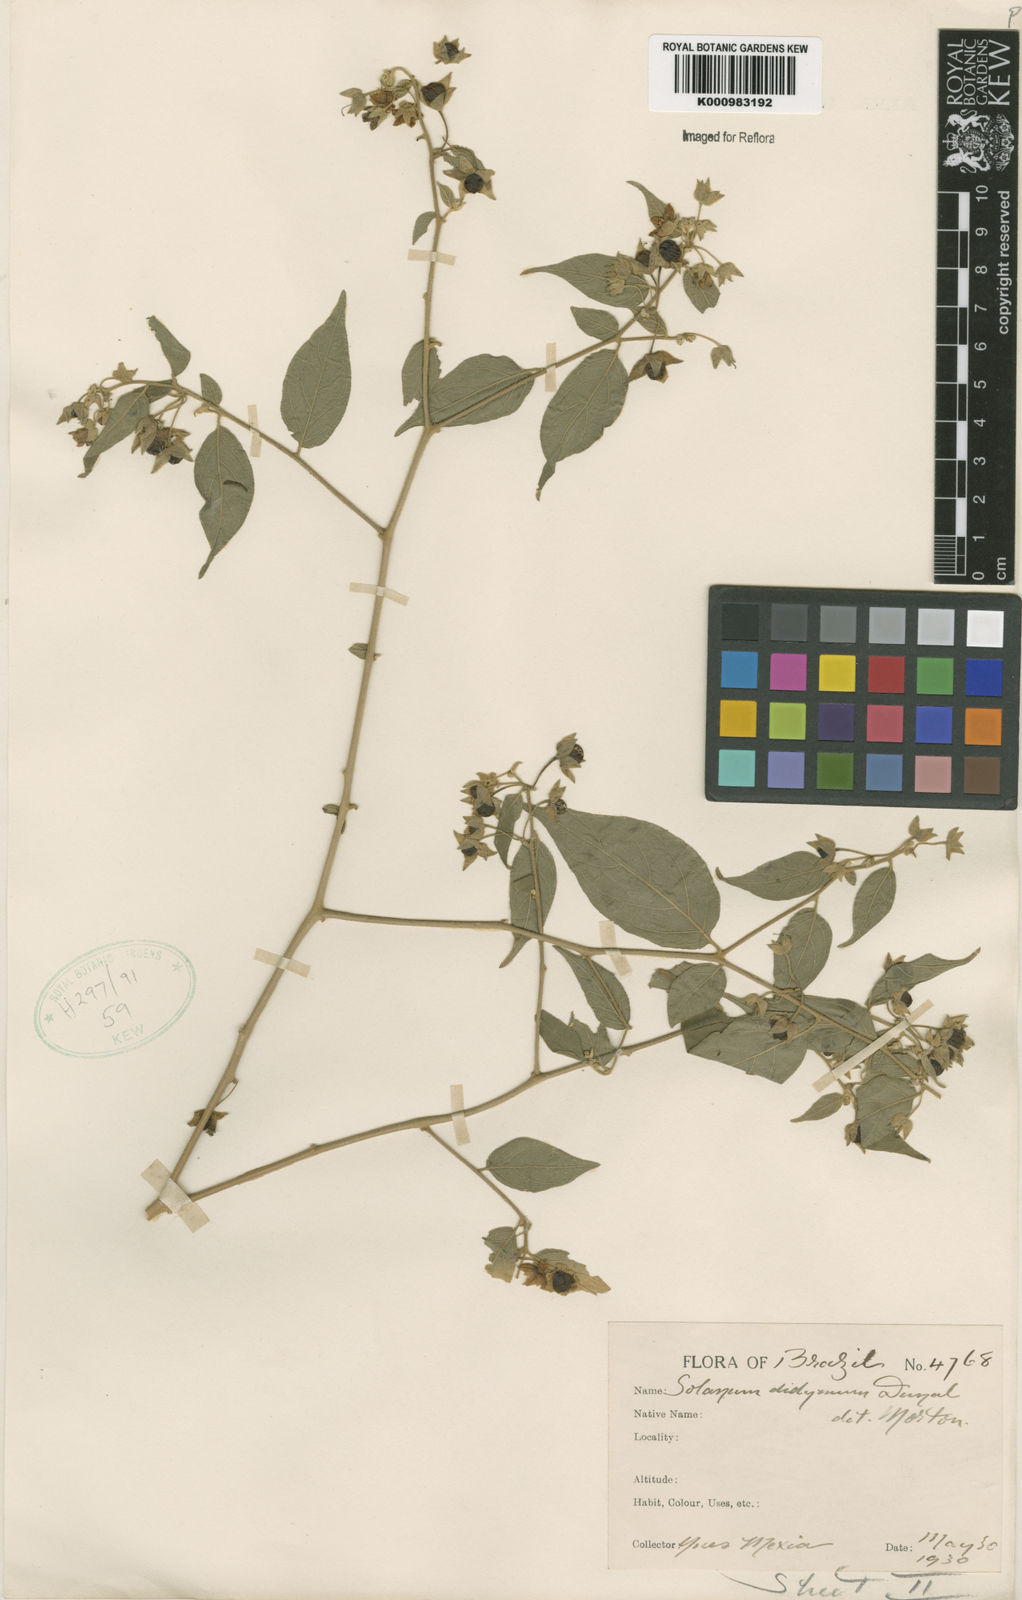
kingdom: Plantae
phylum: Tracheophyta
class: Magnoliopsida
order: Solanales
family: Solanaceae
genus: Solanum
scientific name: Solanum didymum
